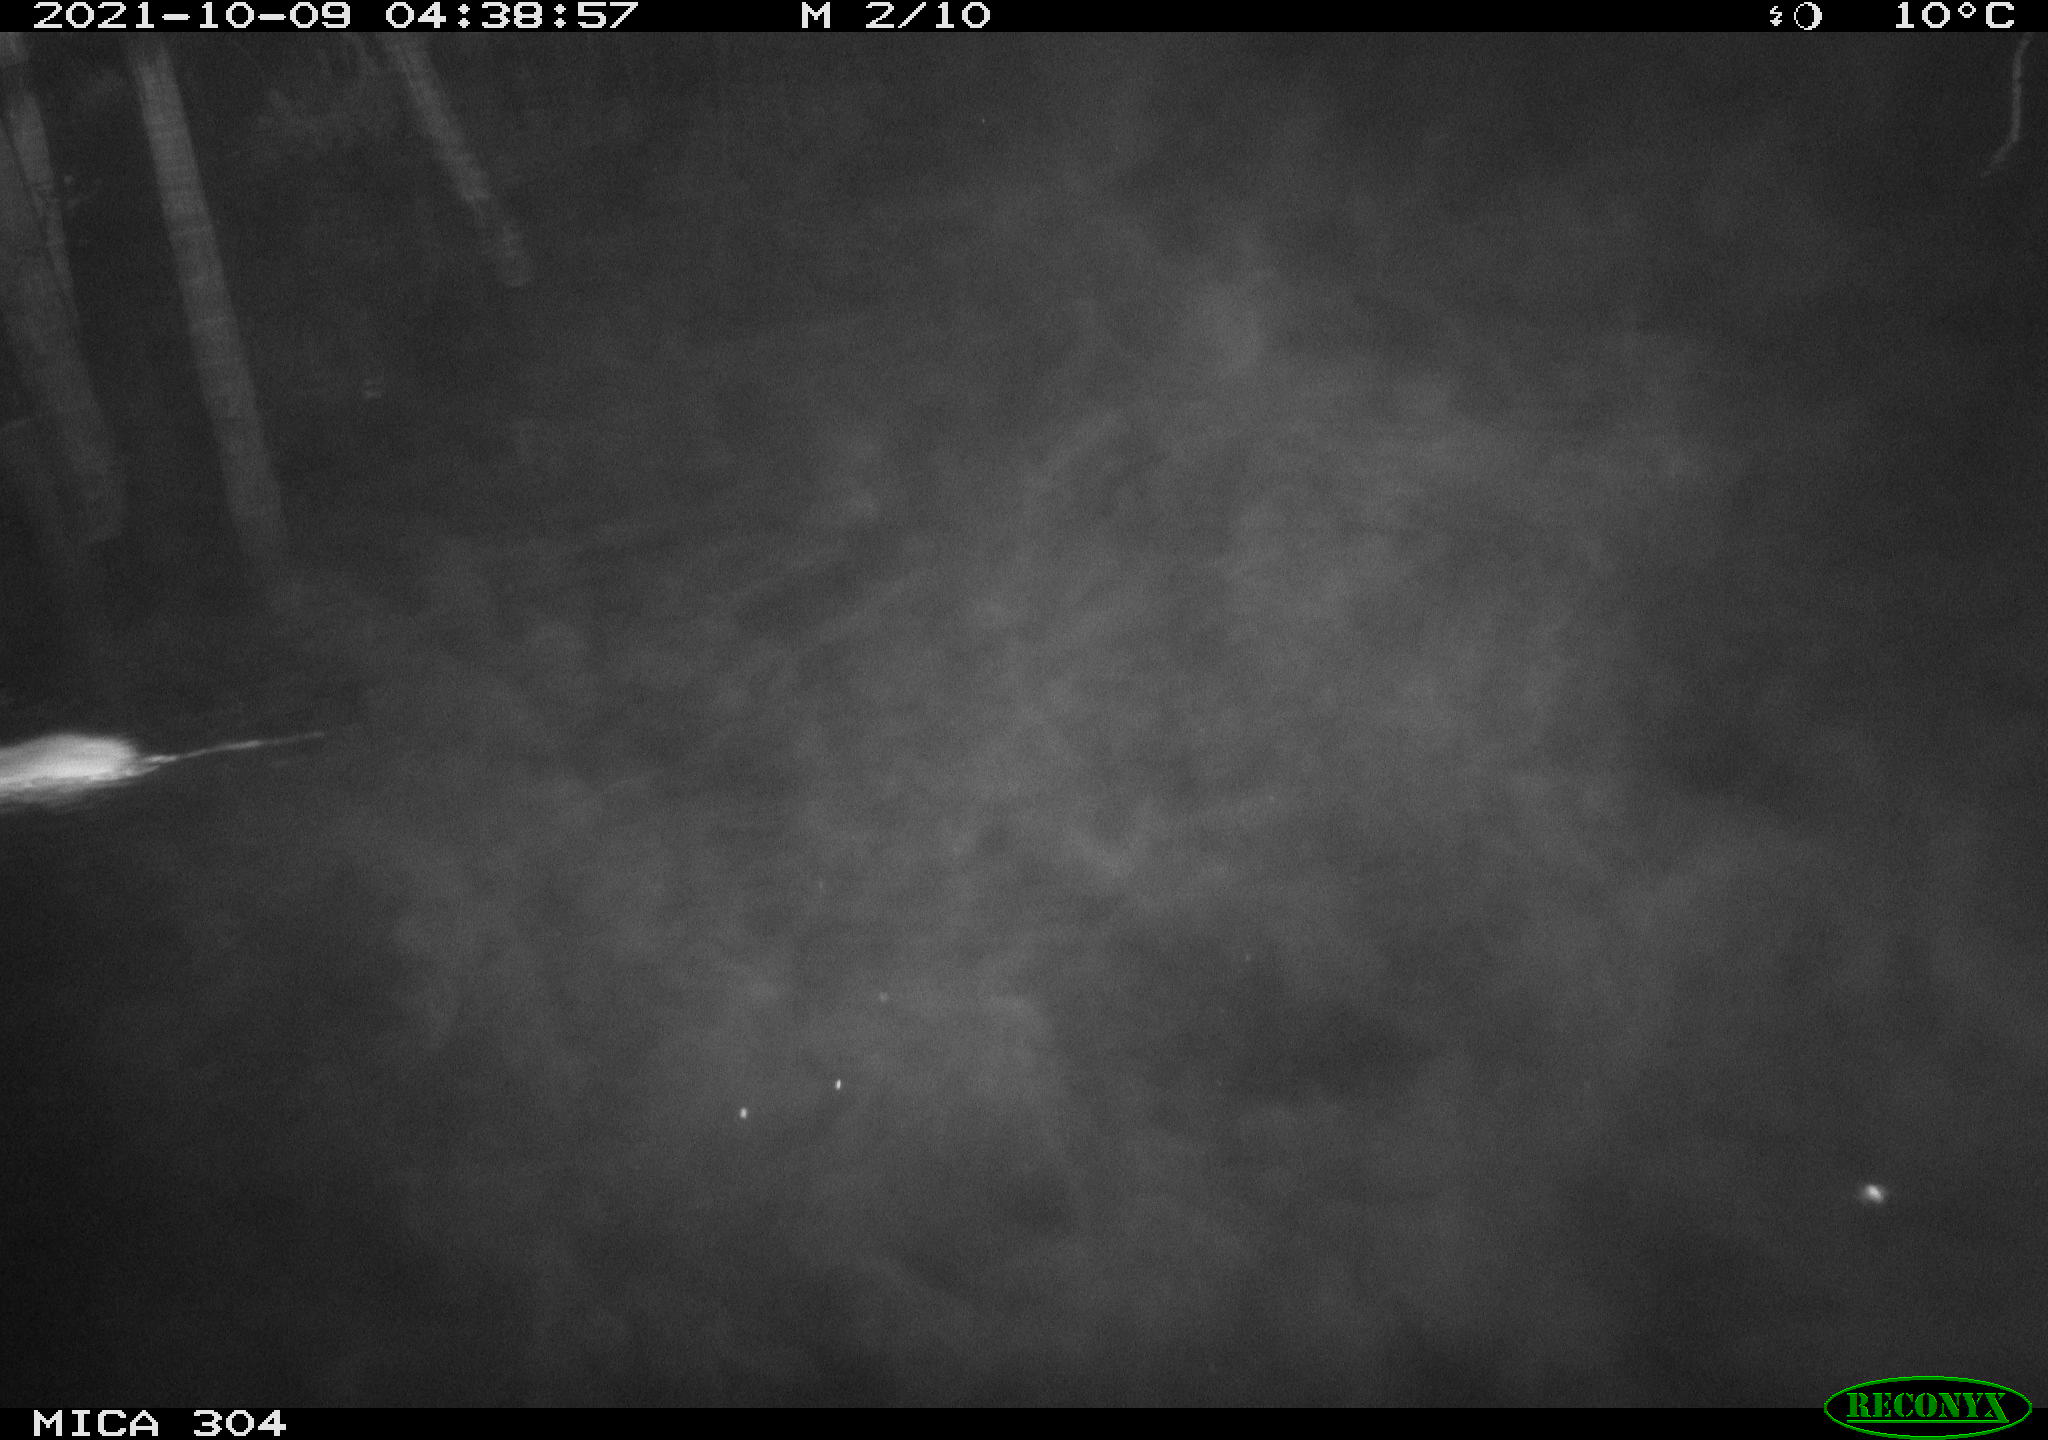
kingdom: Animalia
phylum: Chordata
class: Mammalia
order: Rodentia
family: Muridae
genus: Rattus
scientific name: Rattus norvegicus
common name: Brown rat
